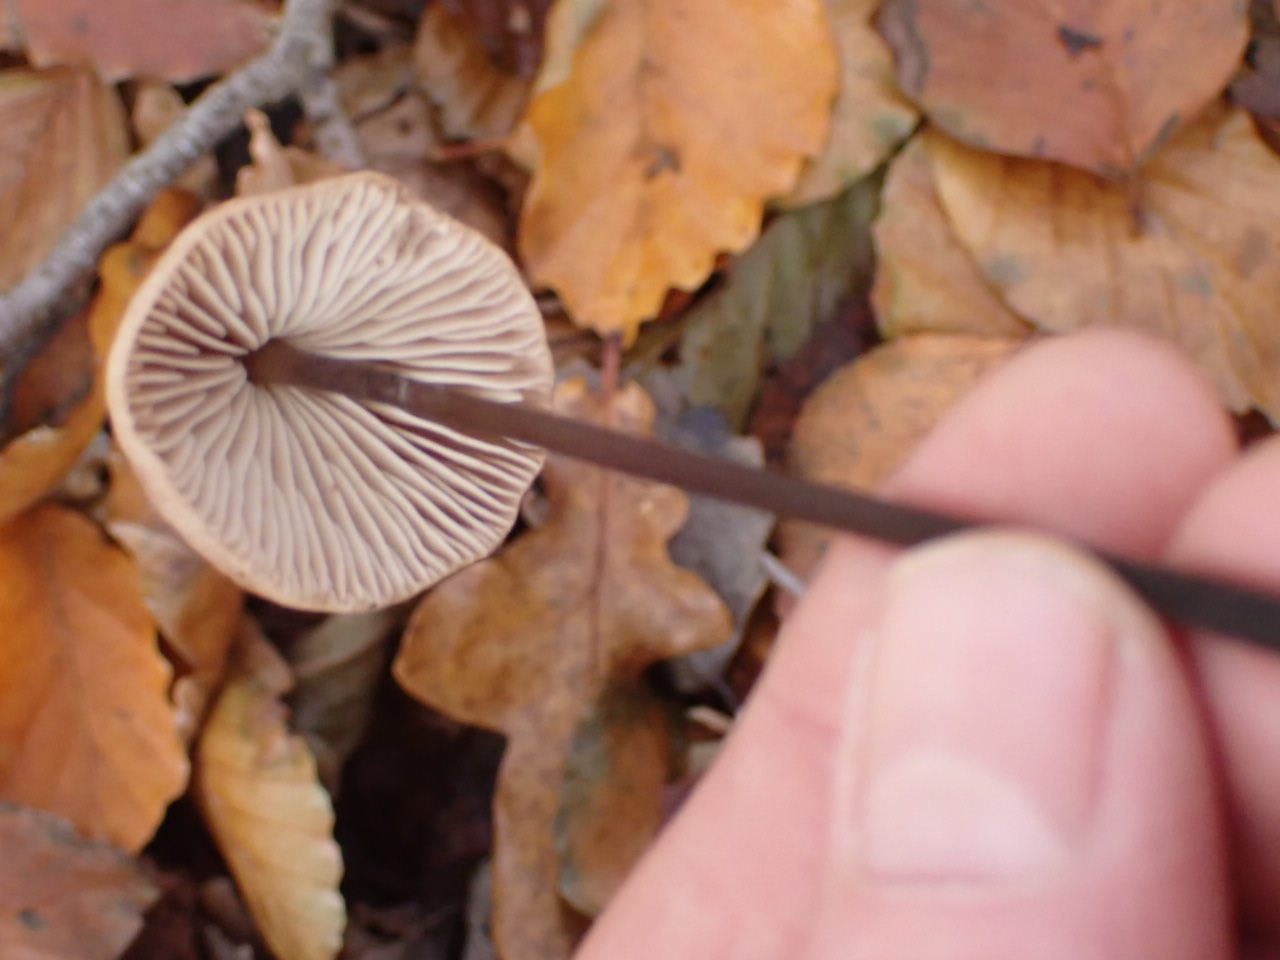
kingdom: Fungi
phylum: Basidiomycota
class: Agaricomycetes
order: Agaricales
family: Omphalotaceae
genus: Mycetinis
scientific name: Mycetinis alliaceus
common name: stor løghat
